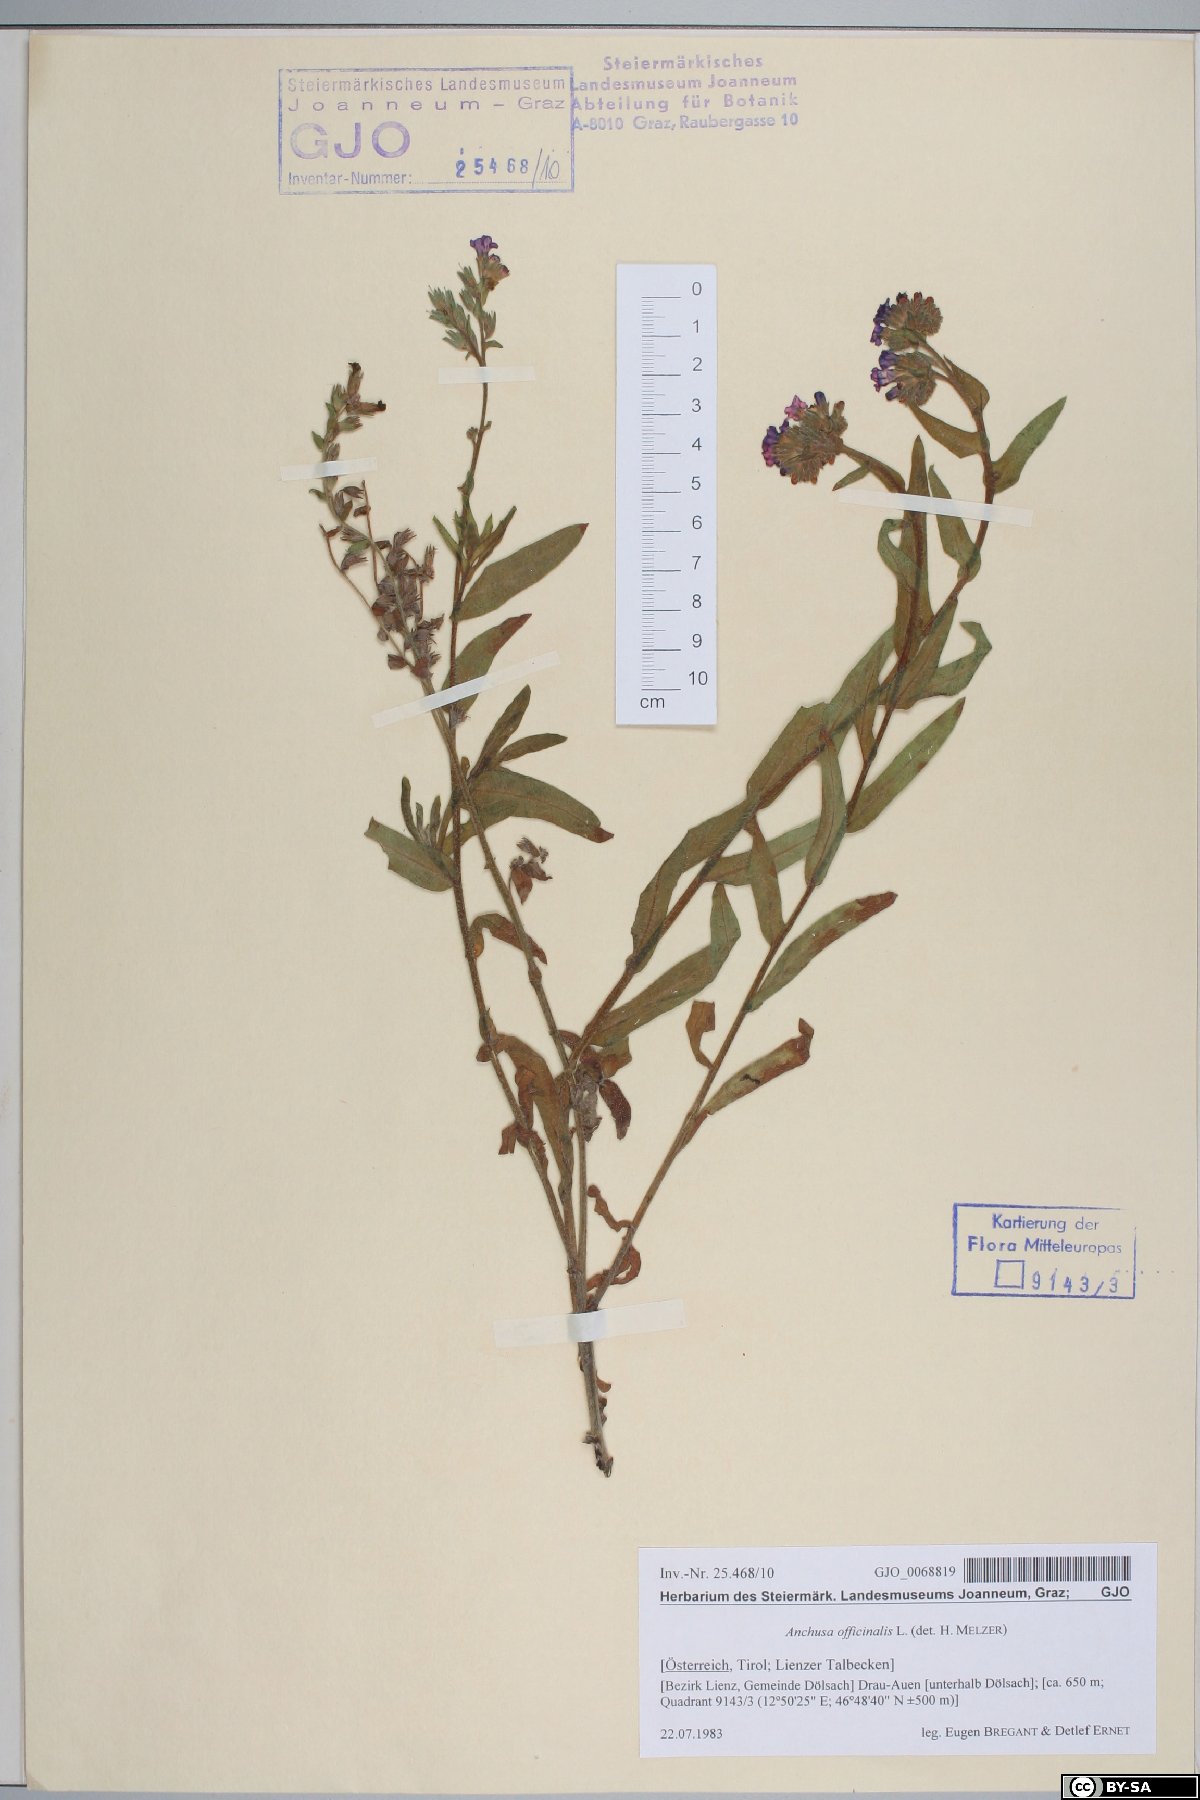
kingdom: Plantae
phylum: Tracheophyta
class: Magnoliopsida
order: Boraginales
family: Boraginaceae
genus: Anchusa
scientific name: Anchusa officinalis
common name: Alkanet
